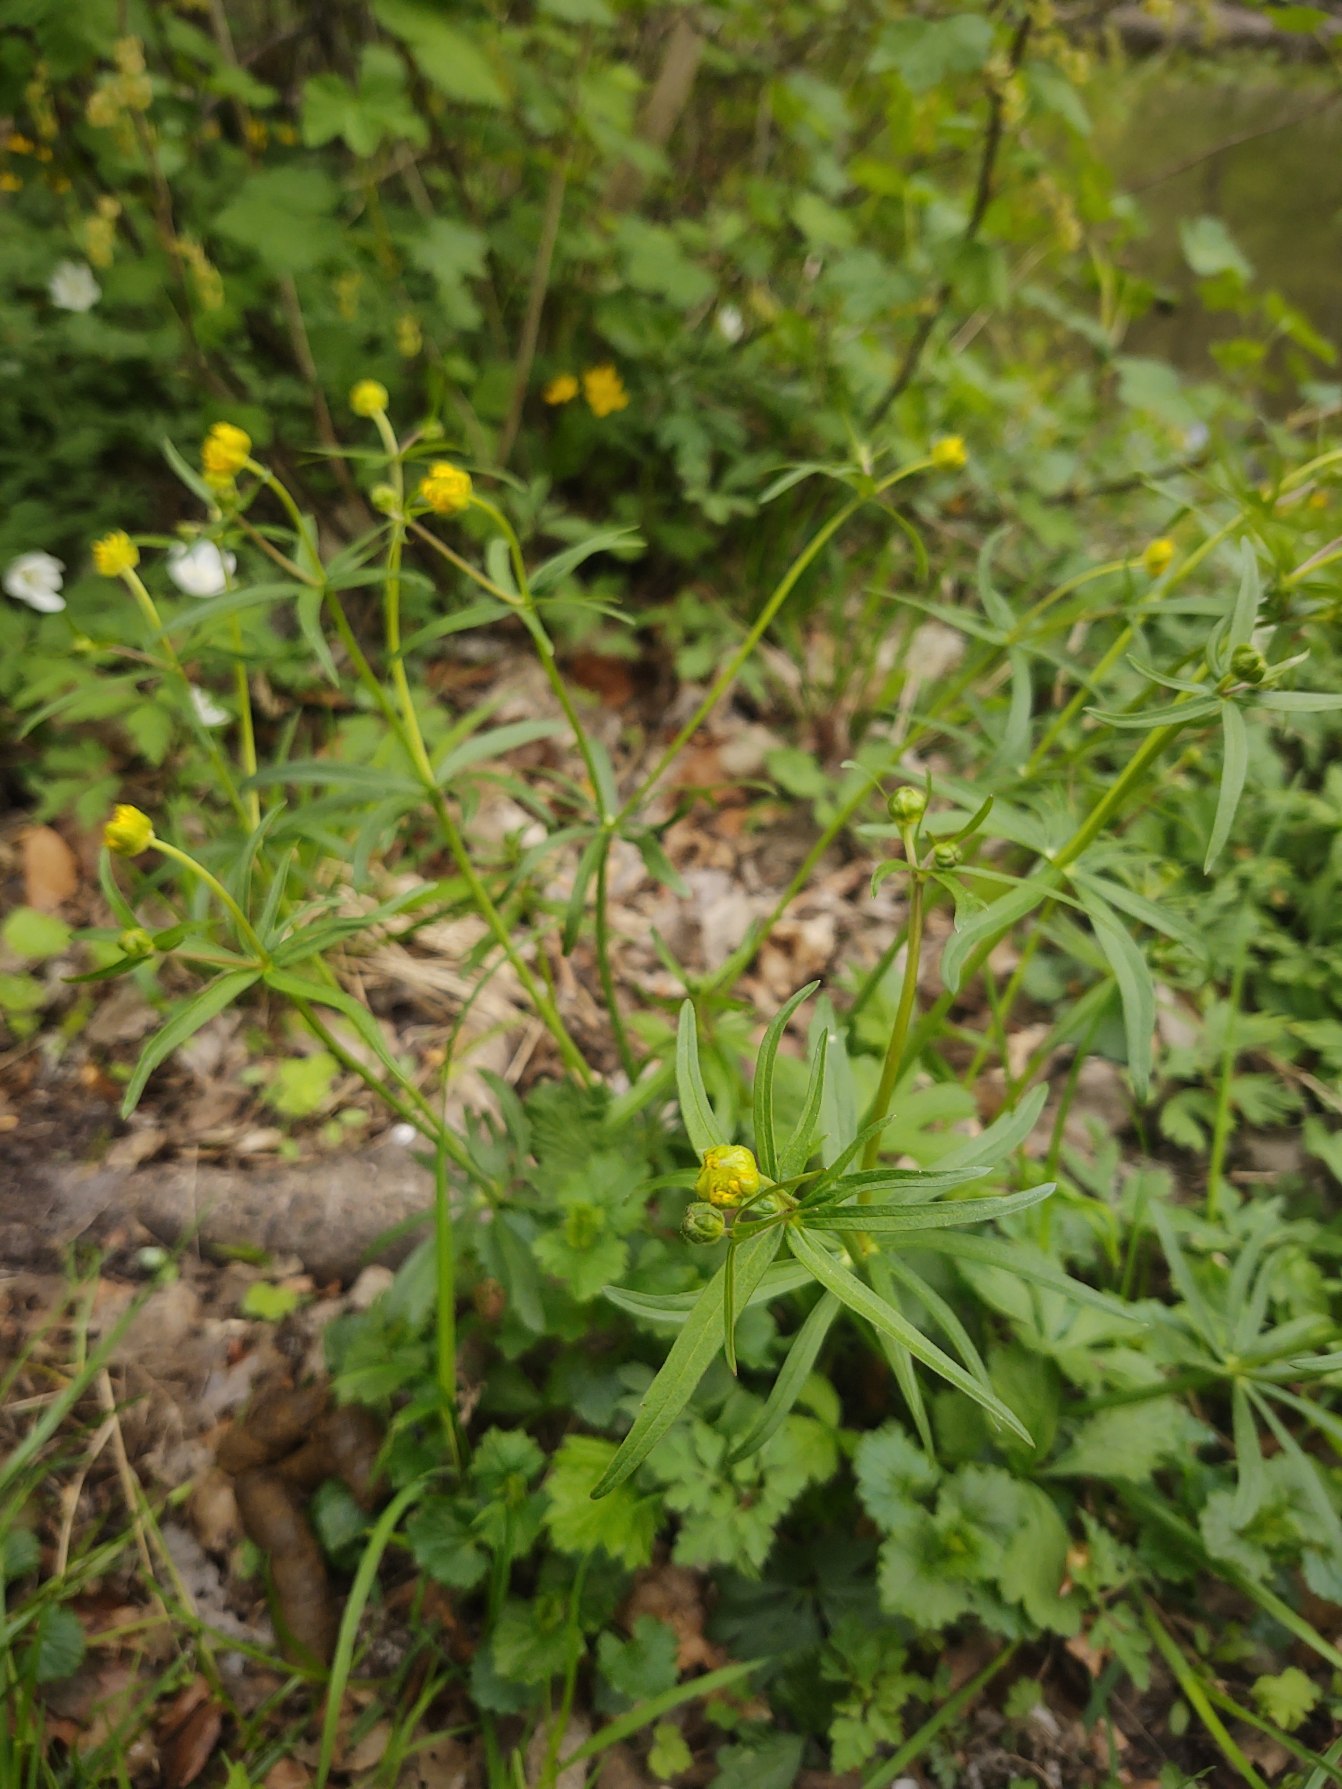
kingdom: Plantae
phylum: Tracheophyta
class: Magnoliopsida
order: Ranunculales
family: Ranunculaceae
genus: Ranunculus
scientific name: Ranunculus auricomus
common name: Nyrebladet ranunkel
